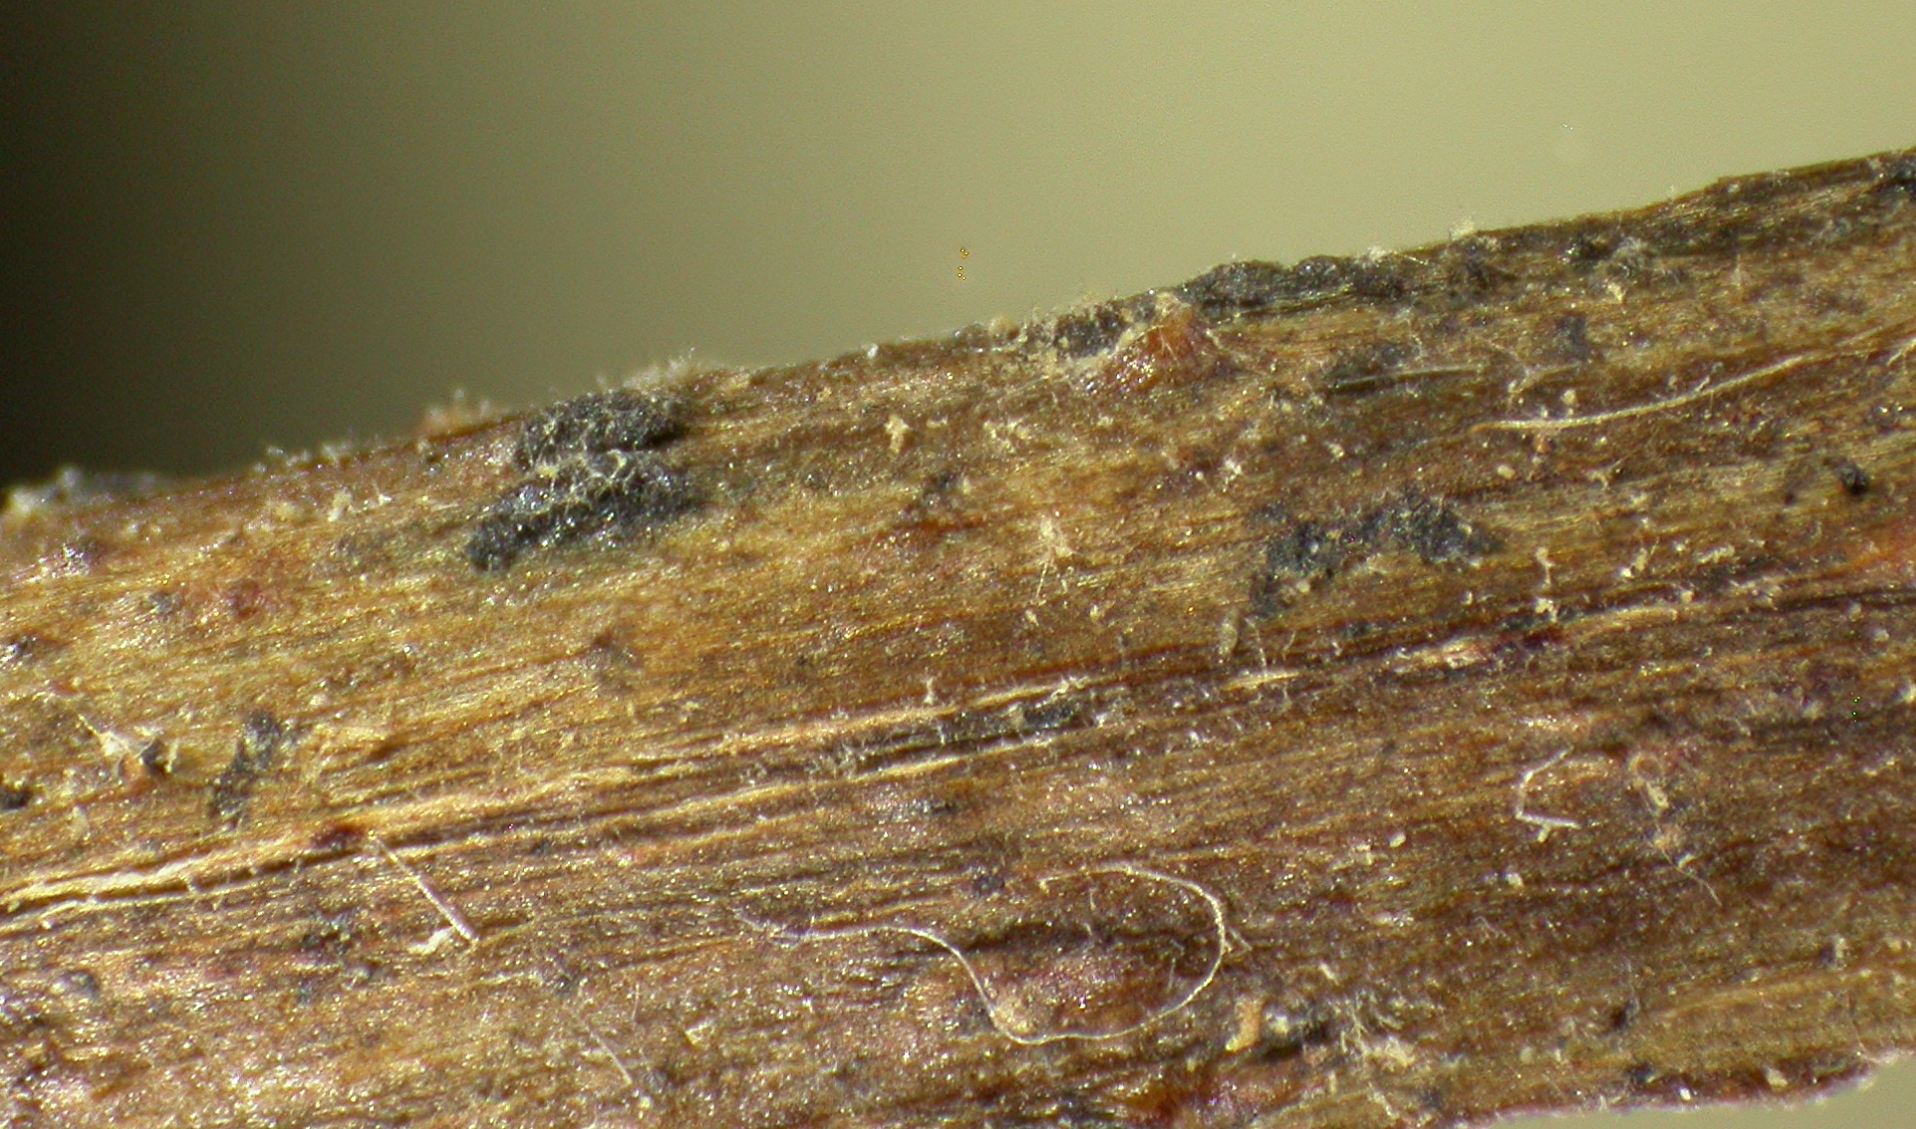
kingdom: Fungi
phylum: Ascomycota
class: Sordariomycetes
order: Diaporthales
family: Valsaceae
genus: Valsa
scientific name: Valsa ceratophora
